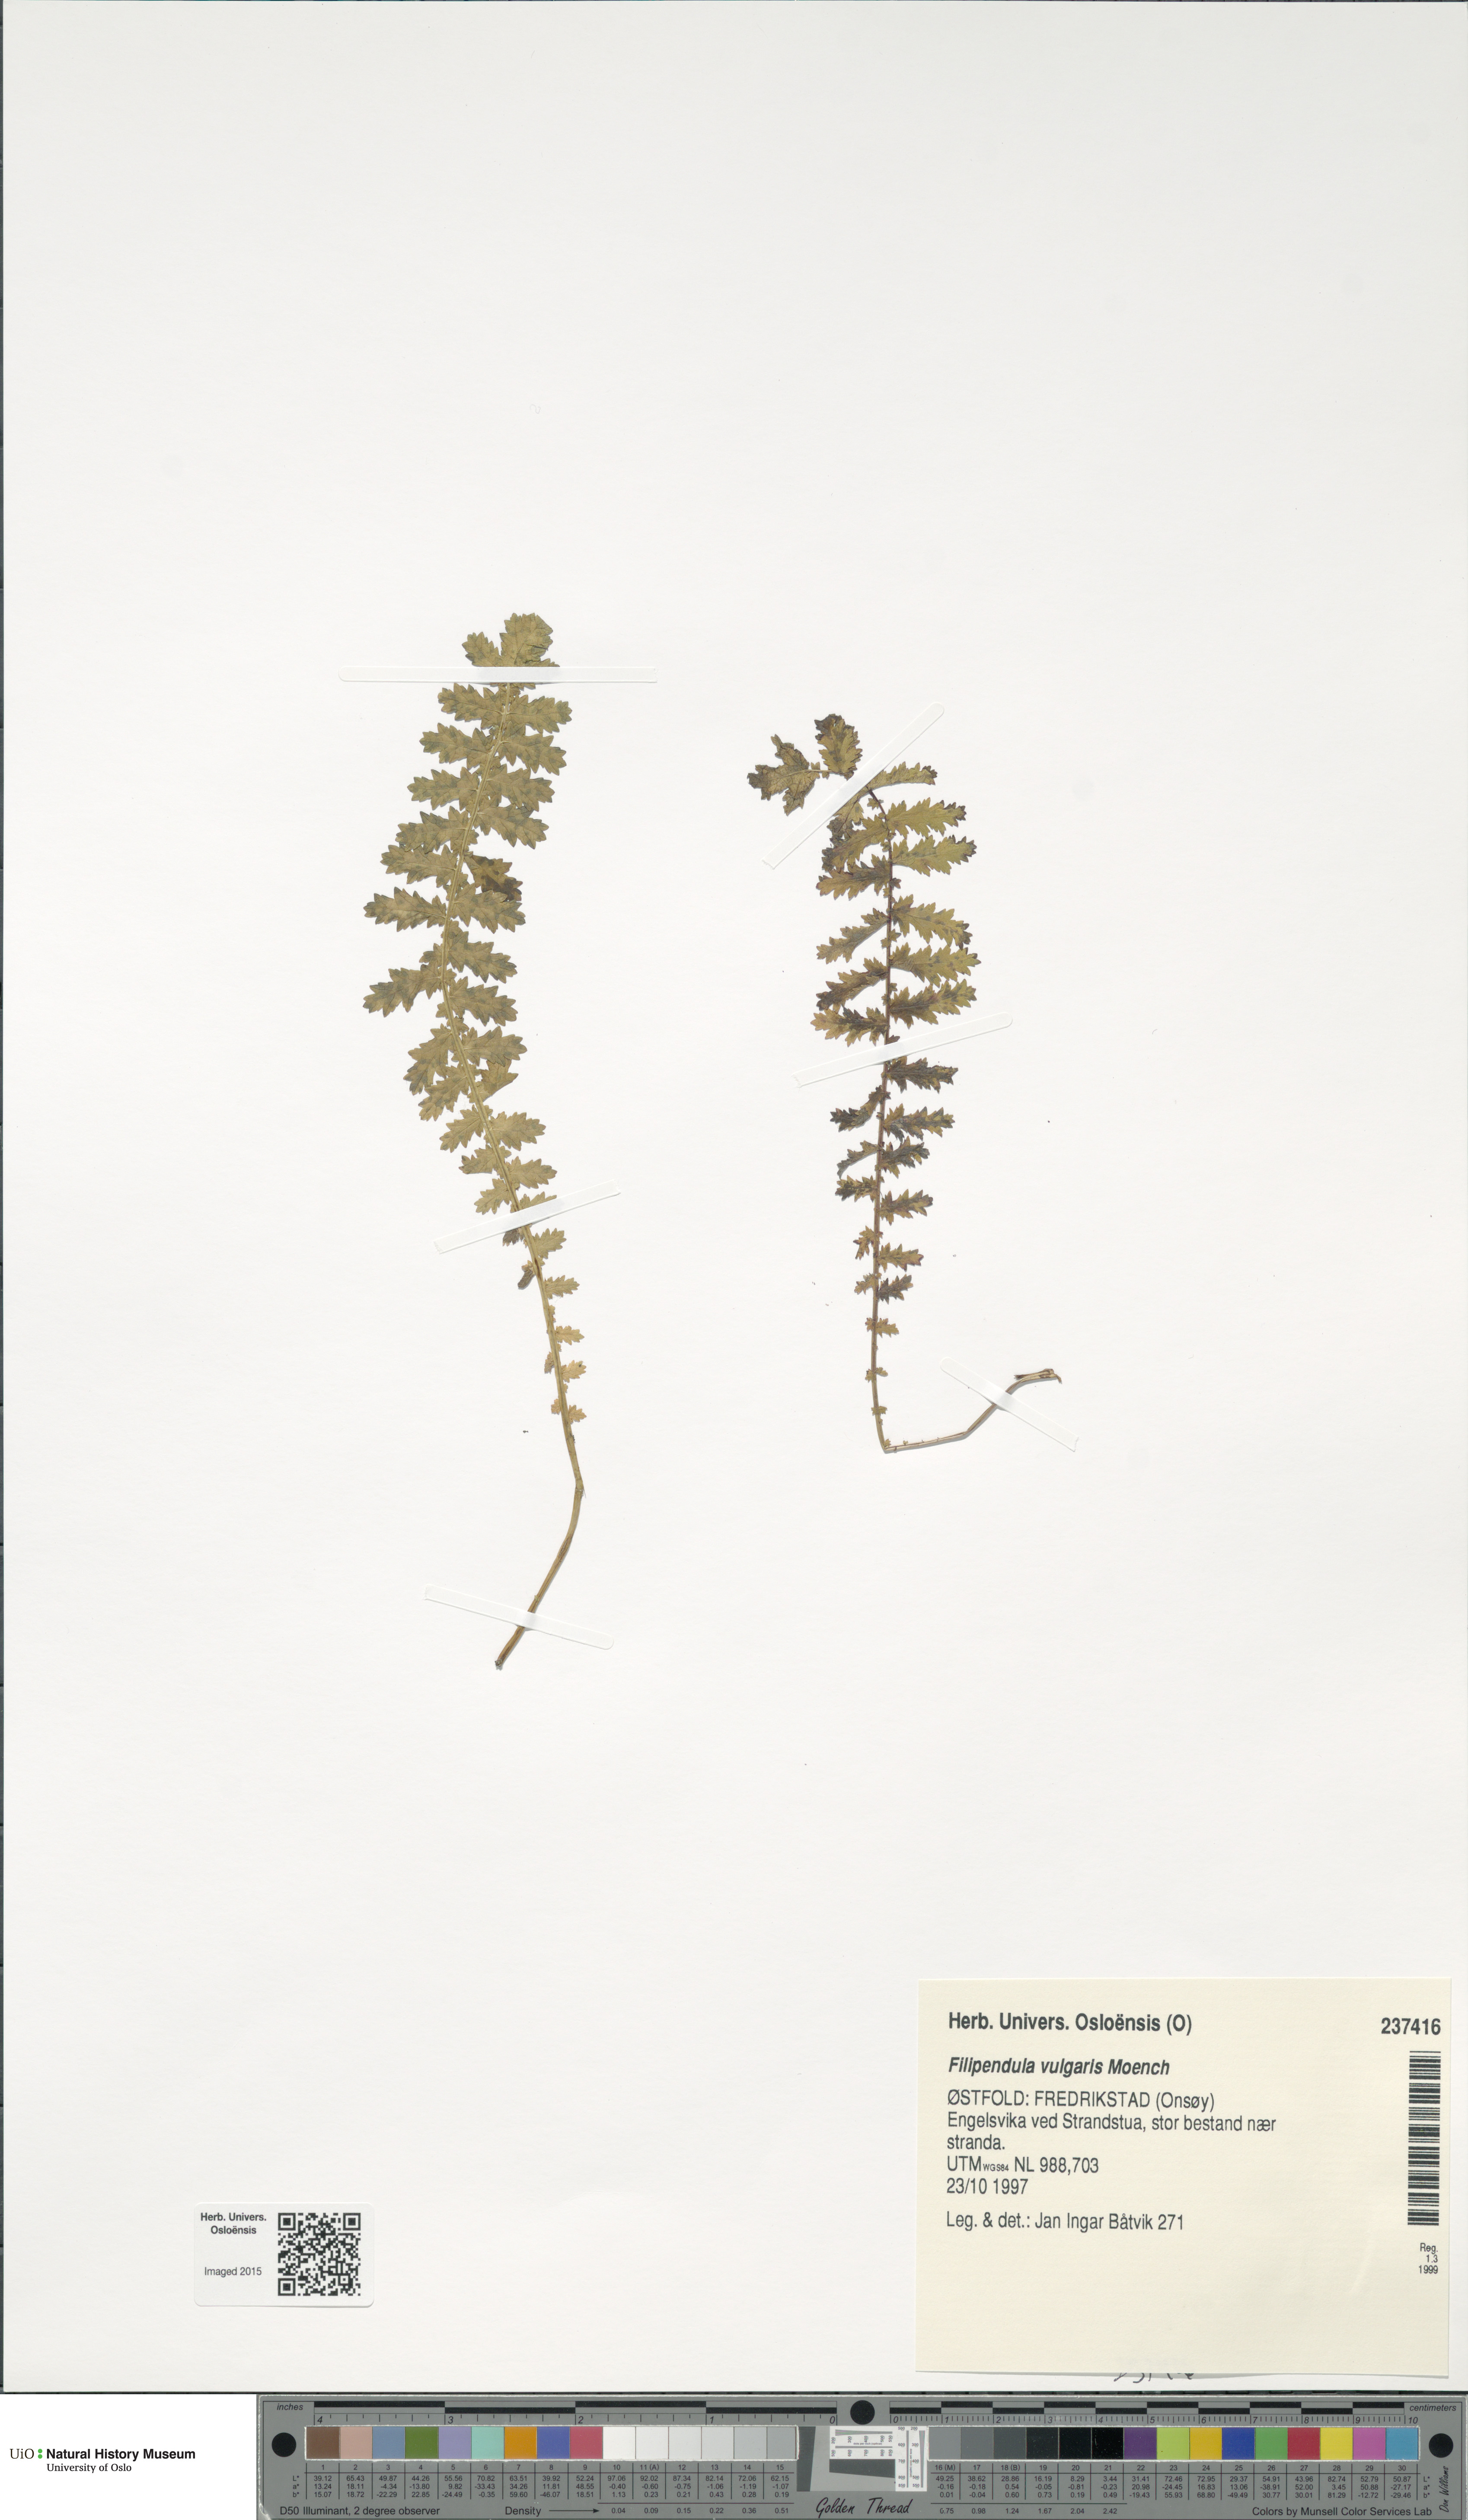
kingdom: Plantae
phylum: Tracheophyta
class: Magnoliopsida
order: Rosales
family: Rosaceae
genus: Filipendula
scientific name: Filipendula vulgaris
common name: Dropwort
